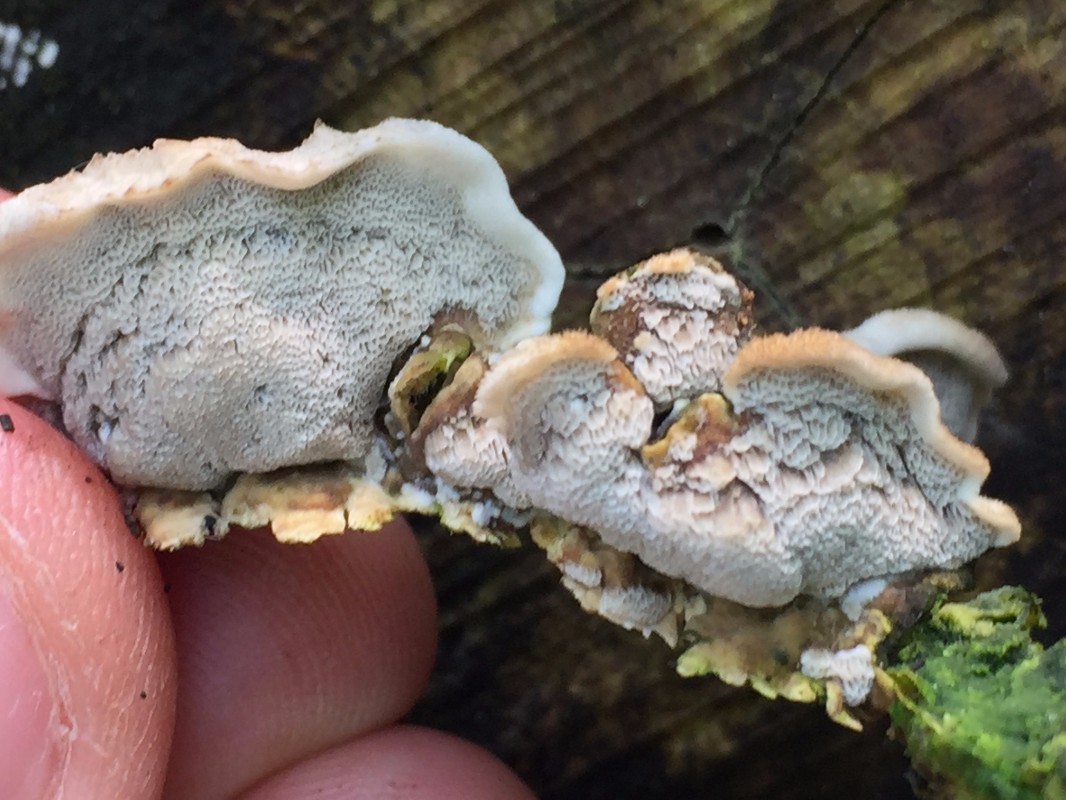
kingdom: Fungi
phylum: Basidiomycota
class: Agaricomycetes
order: Polyporales
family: Phanerochaetaceae
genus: Bjerkandera
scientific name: Bjerkandera fumosa
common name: grågul sodporesvamp
